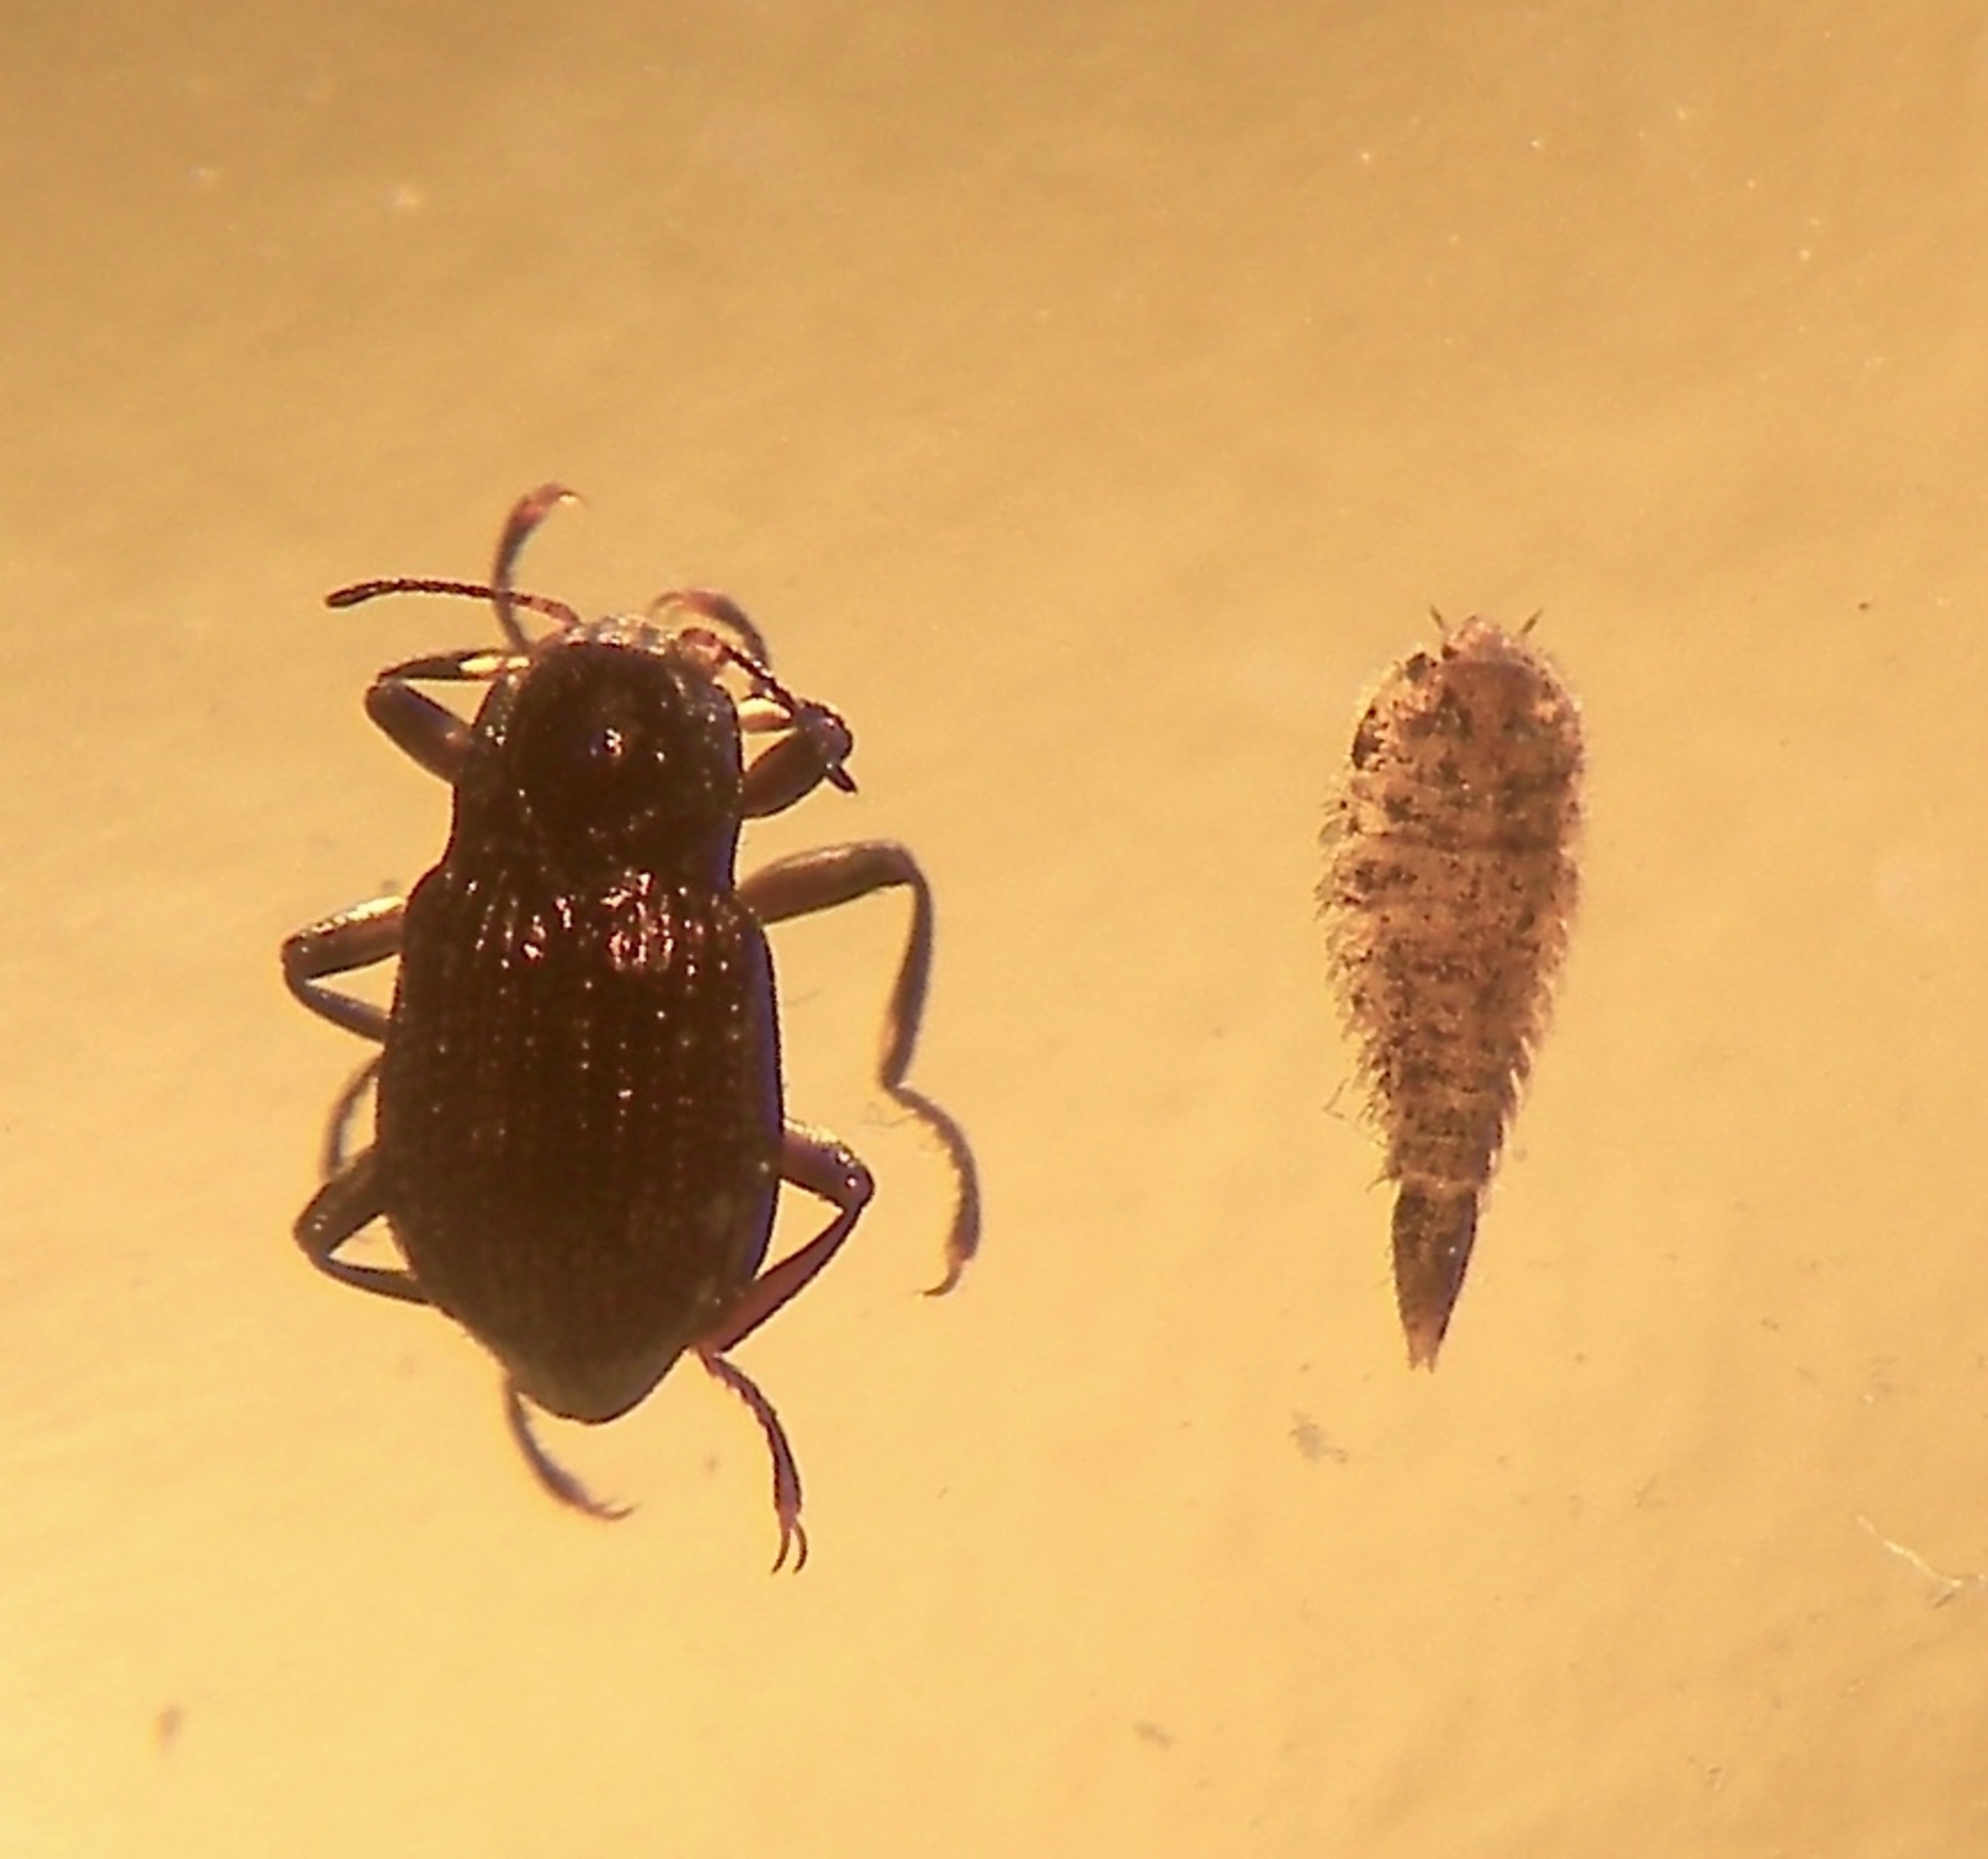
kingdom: Animalia
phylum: Arthropoda
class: Insecta
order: Coleoptera
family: Elmidae
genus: Elmis
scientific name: Elmis aenea
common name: Strømklobille
